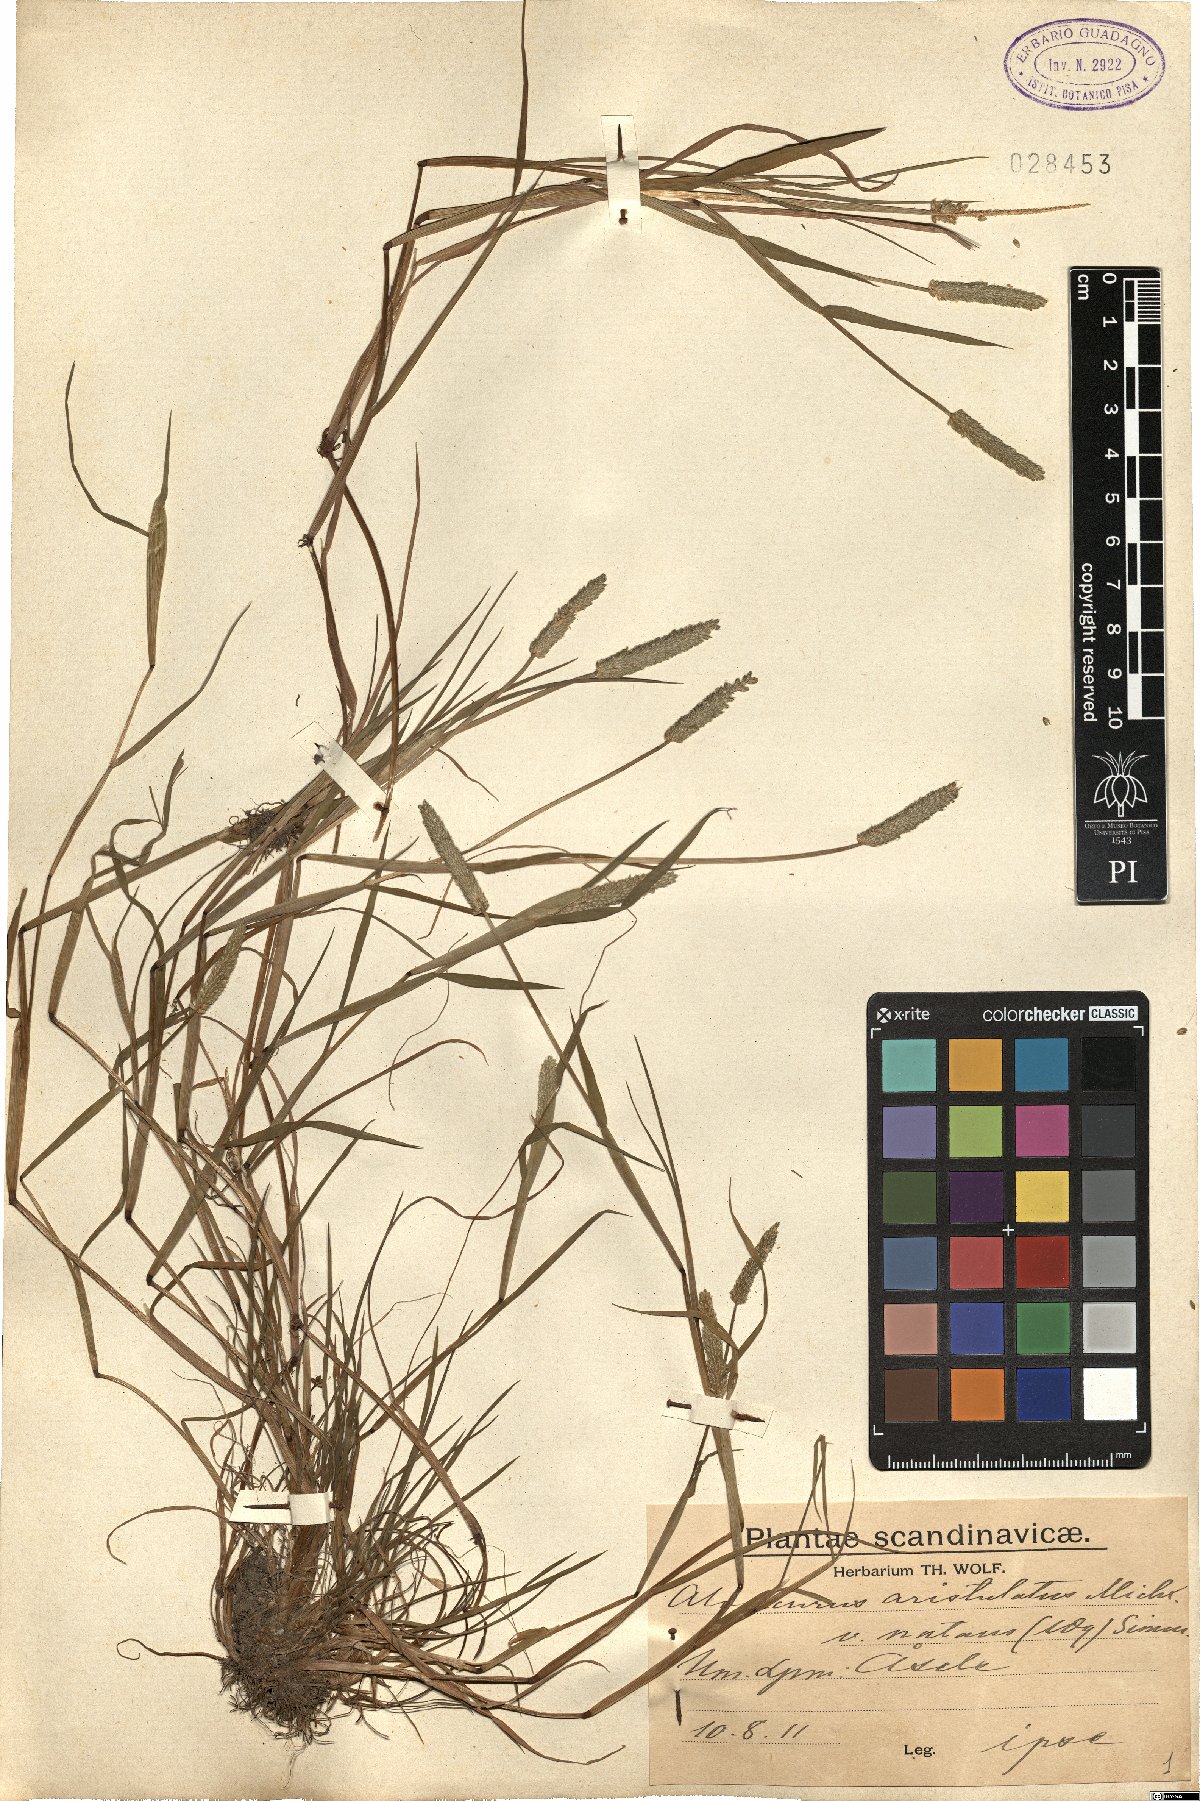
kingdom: Plantae
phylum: Tracheophyta
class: Liliopsida
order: Poales
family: Poaceae
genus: Alopecurus
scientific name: Alopecurus aequalis
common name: Orange foxtail
